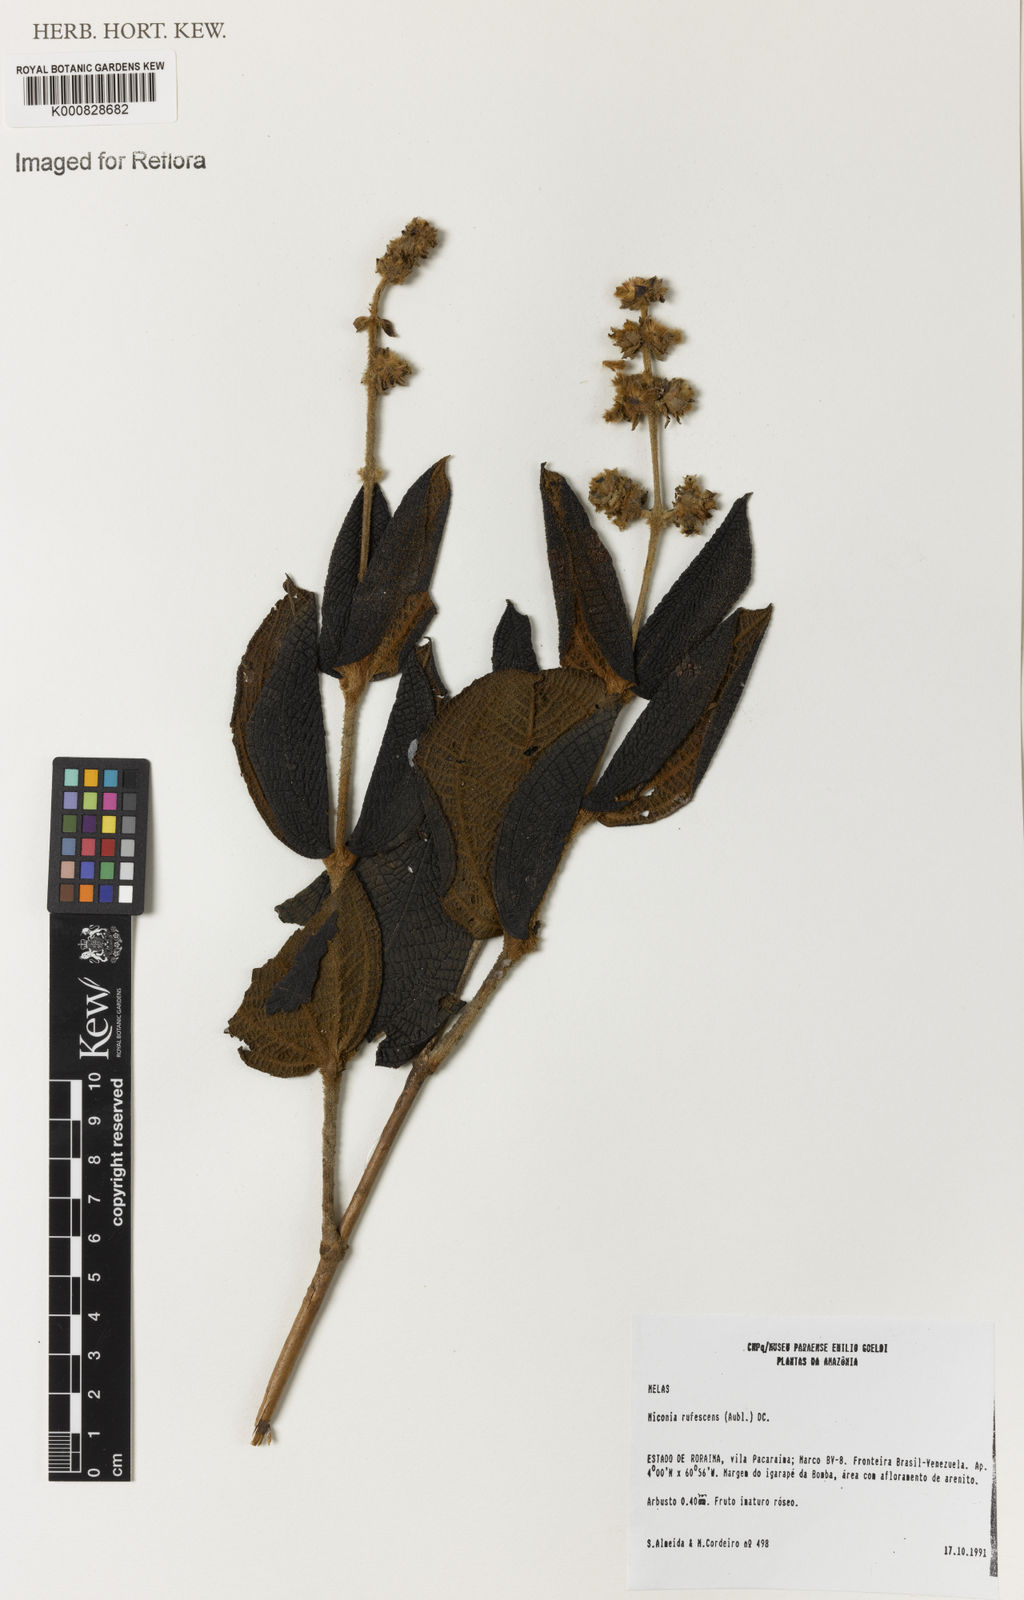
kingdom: Plantae
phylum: Tracheophyta
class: Magnoliopsida
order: Myrtales
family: Melastomataceae
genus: Miconia
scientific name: Miconia rufescens
